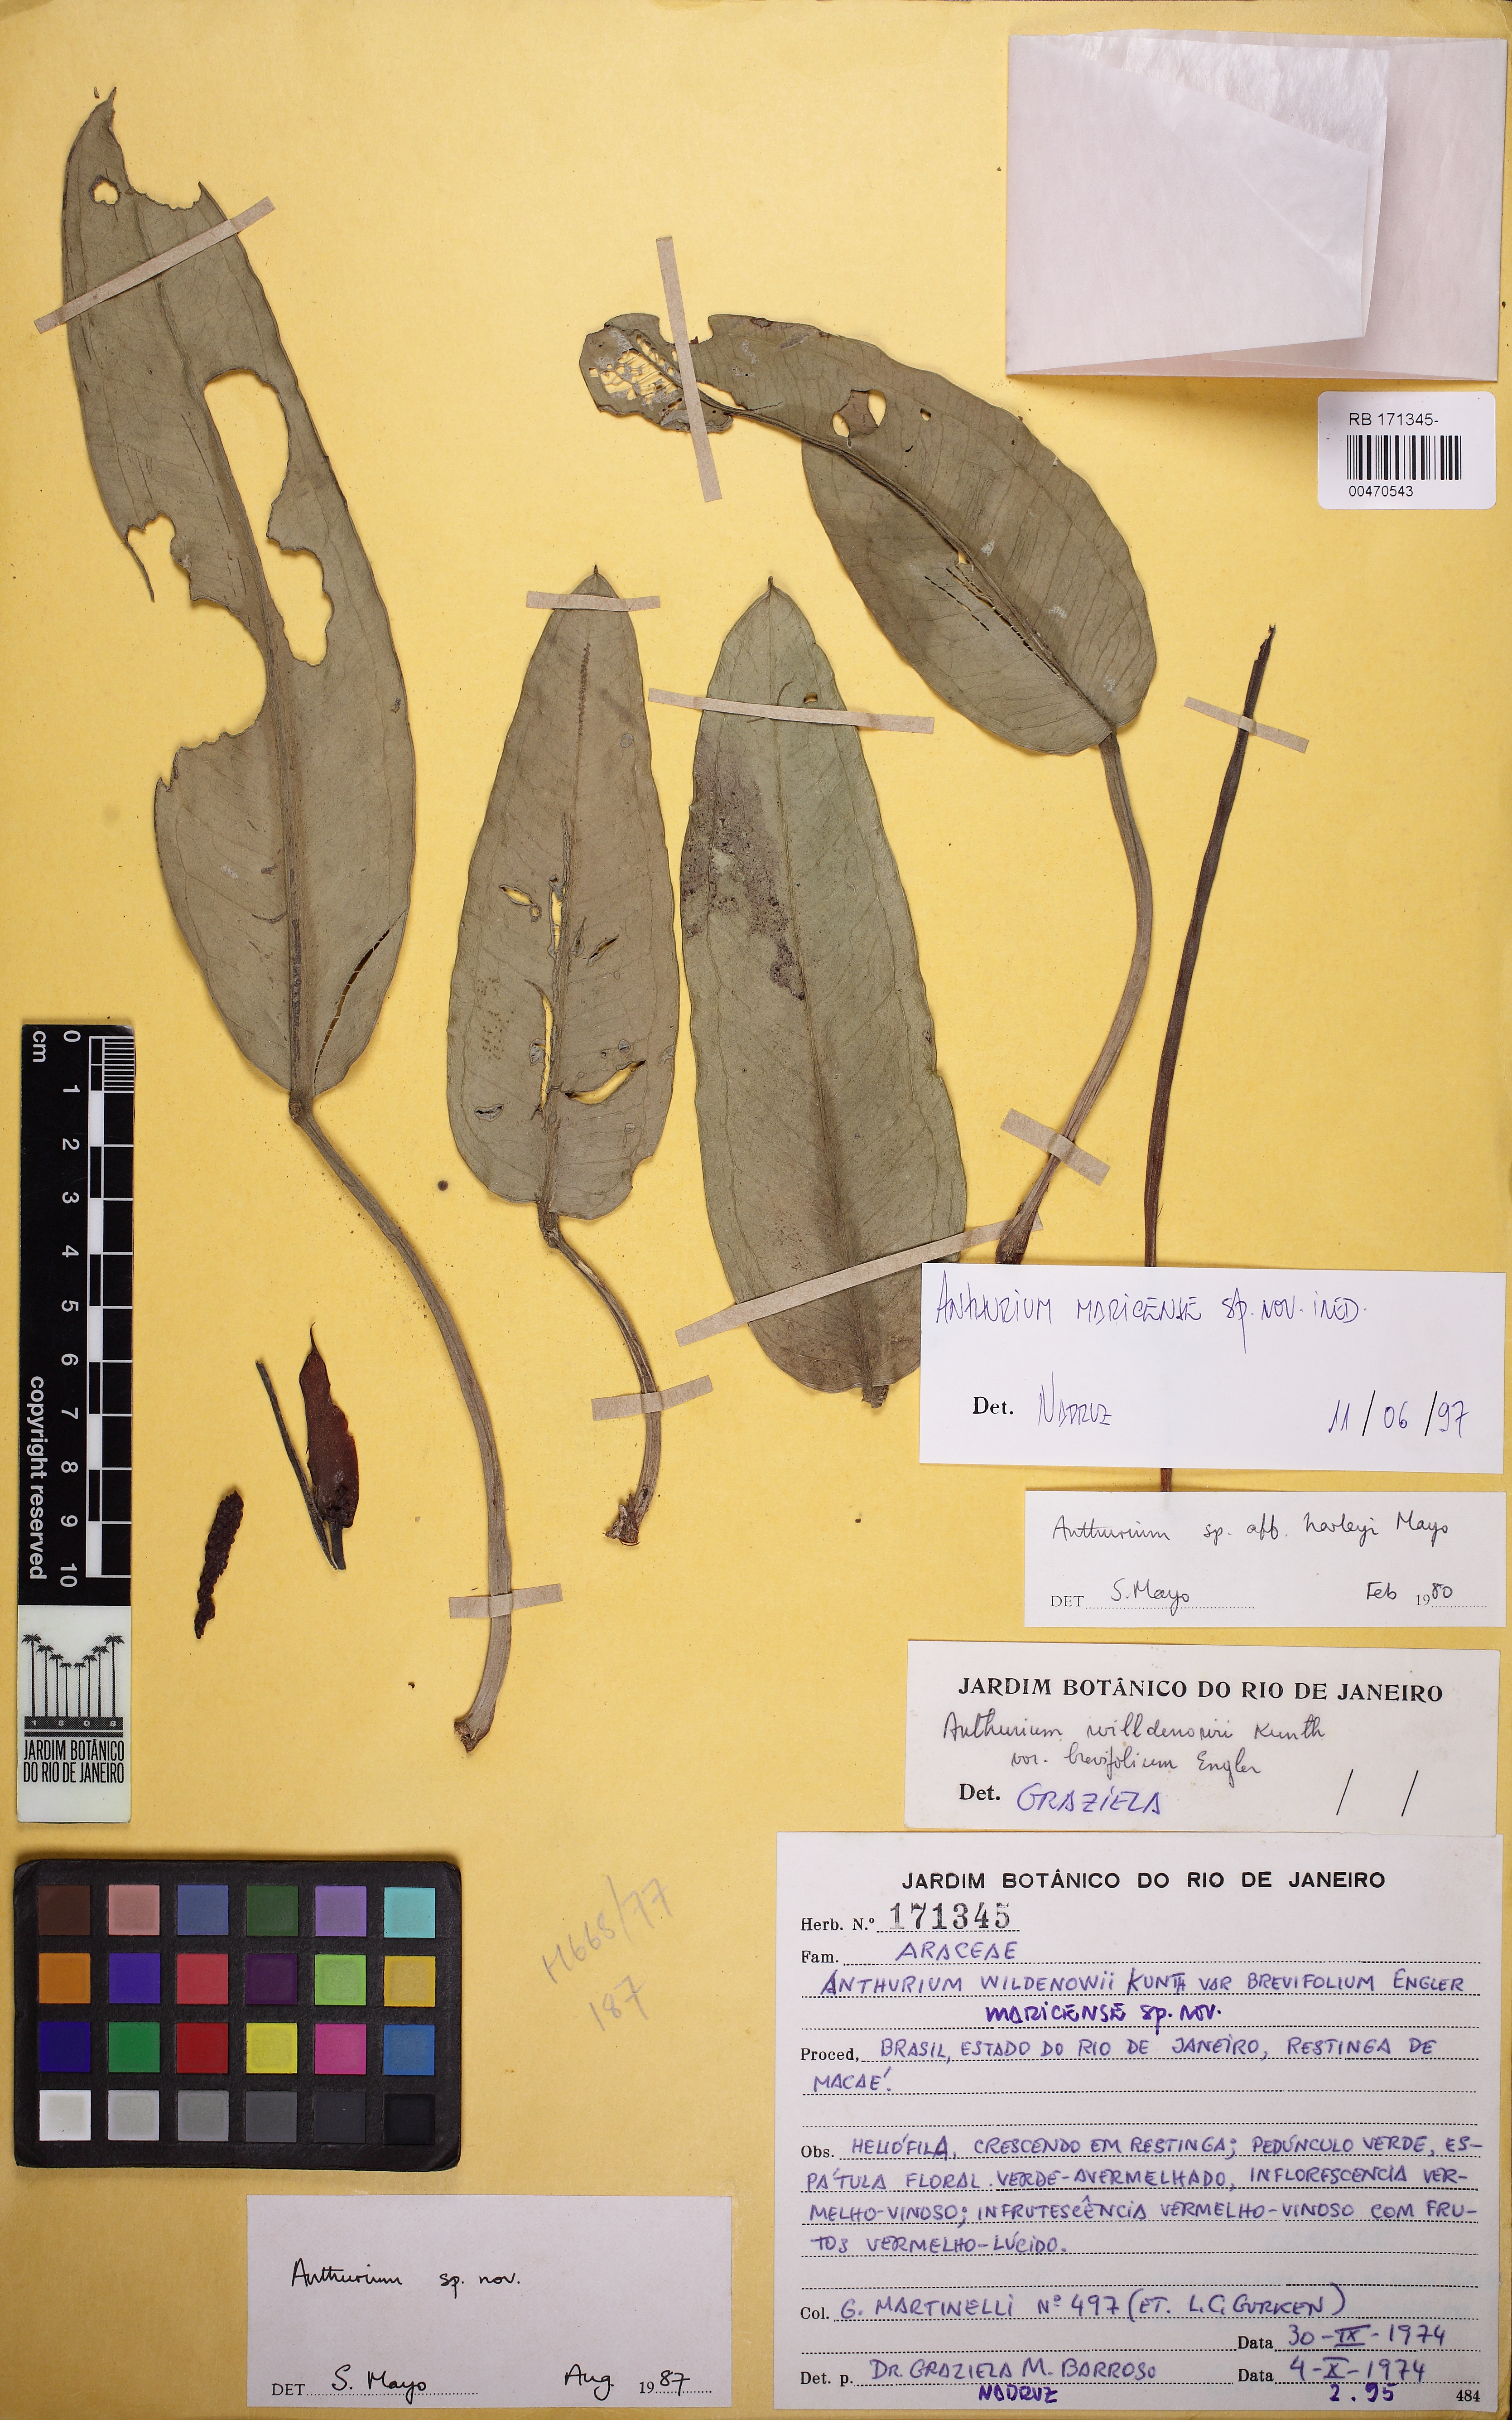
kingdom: Plantae
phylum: Tracheophyta
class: Liliopsida
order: Alismatales
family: Araceae
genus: Anthurium
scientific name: Anthurium maricense
